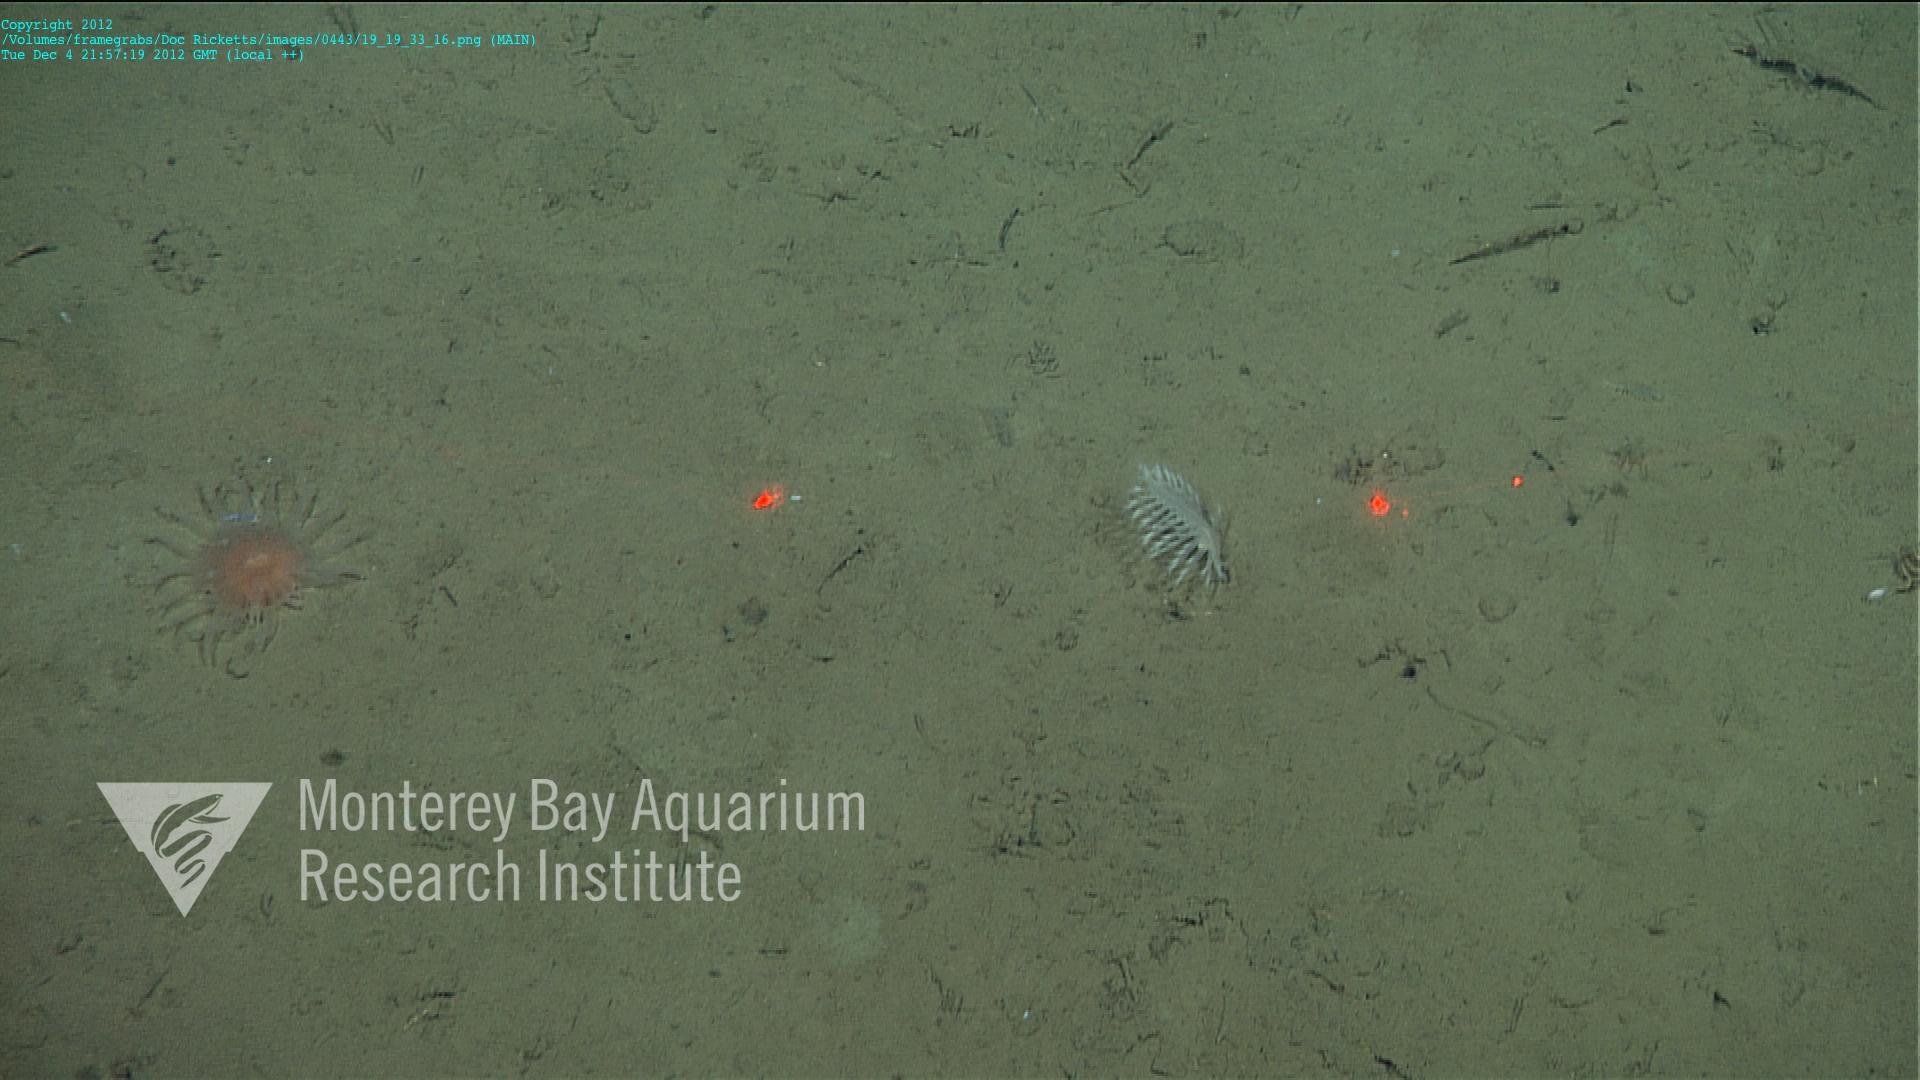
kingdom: Animalia
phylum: Cnidaria
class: Anthozoa
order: Scleralcyonacea
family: Pennatulidae
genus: Pennatula
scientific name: Pennatula
